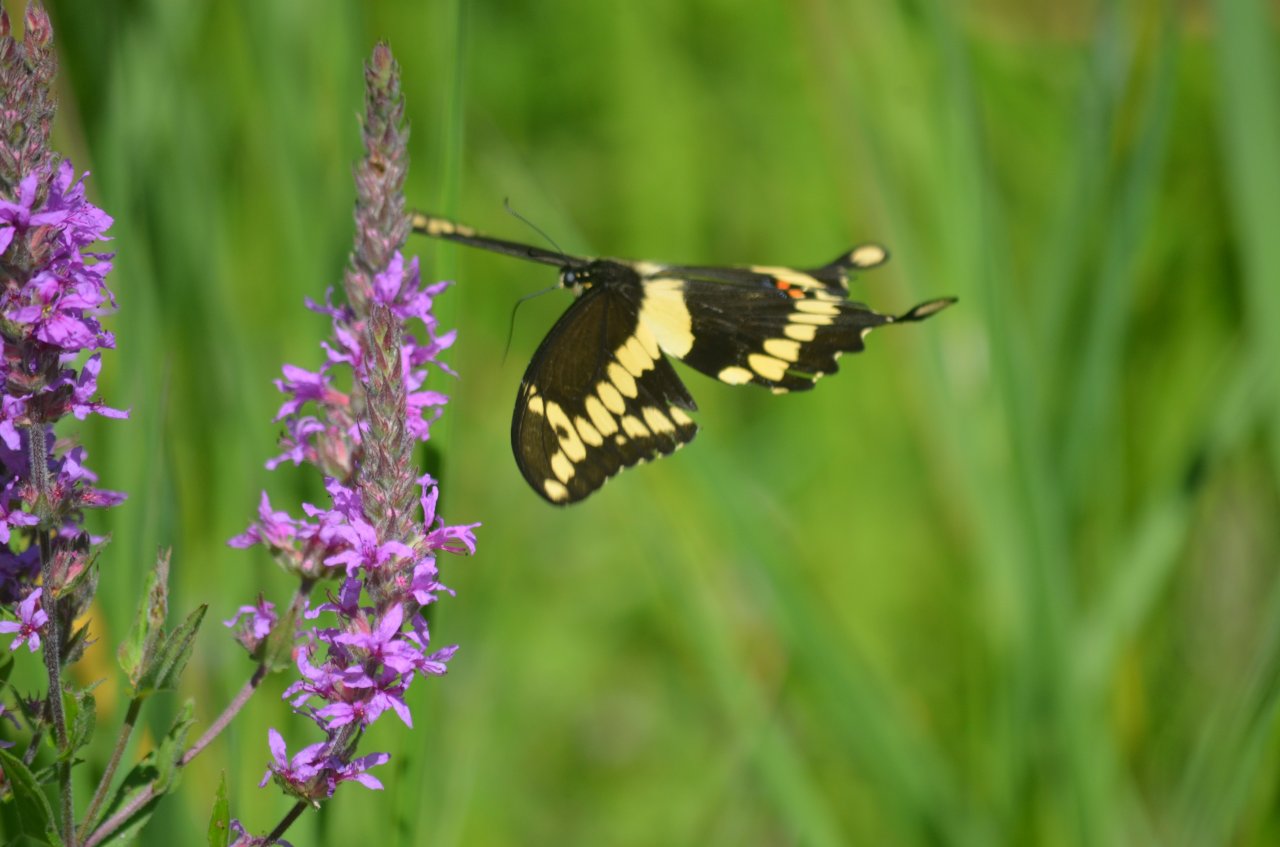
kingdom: Animalia
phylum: Arthropoda
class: Insecta
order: Lepidoptera
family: Papilionidae
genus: Papilio
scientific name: Papilio cresphontes
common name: Eastern Giant Swallowtail
